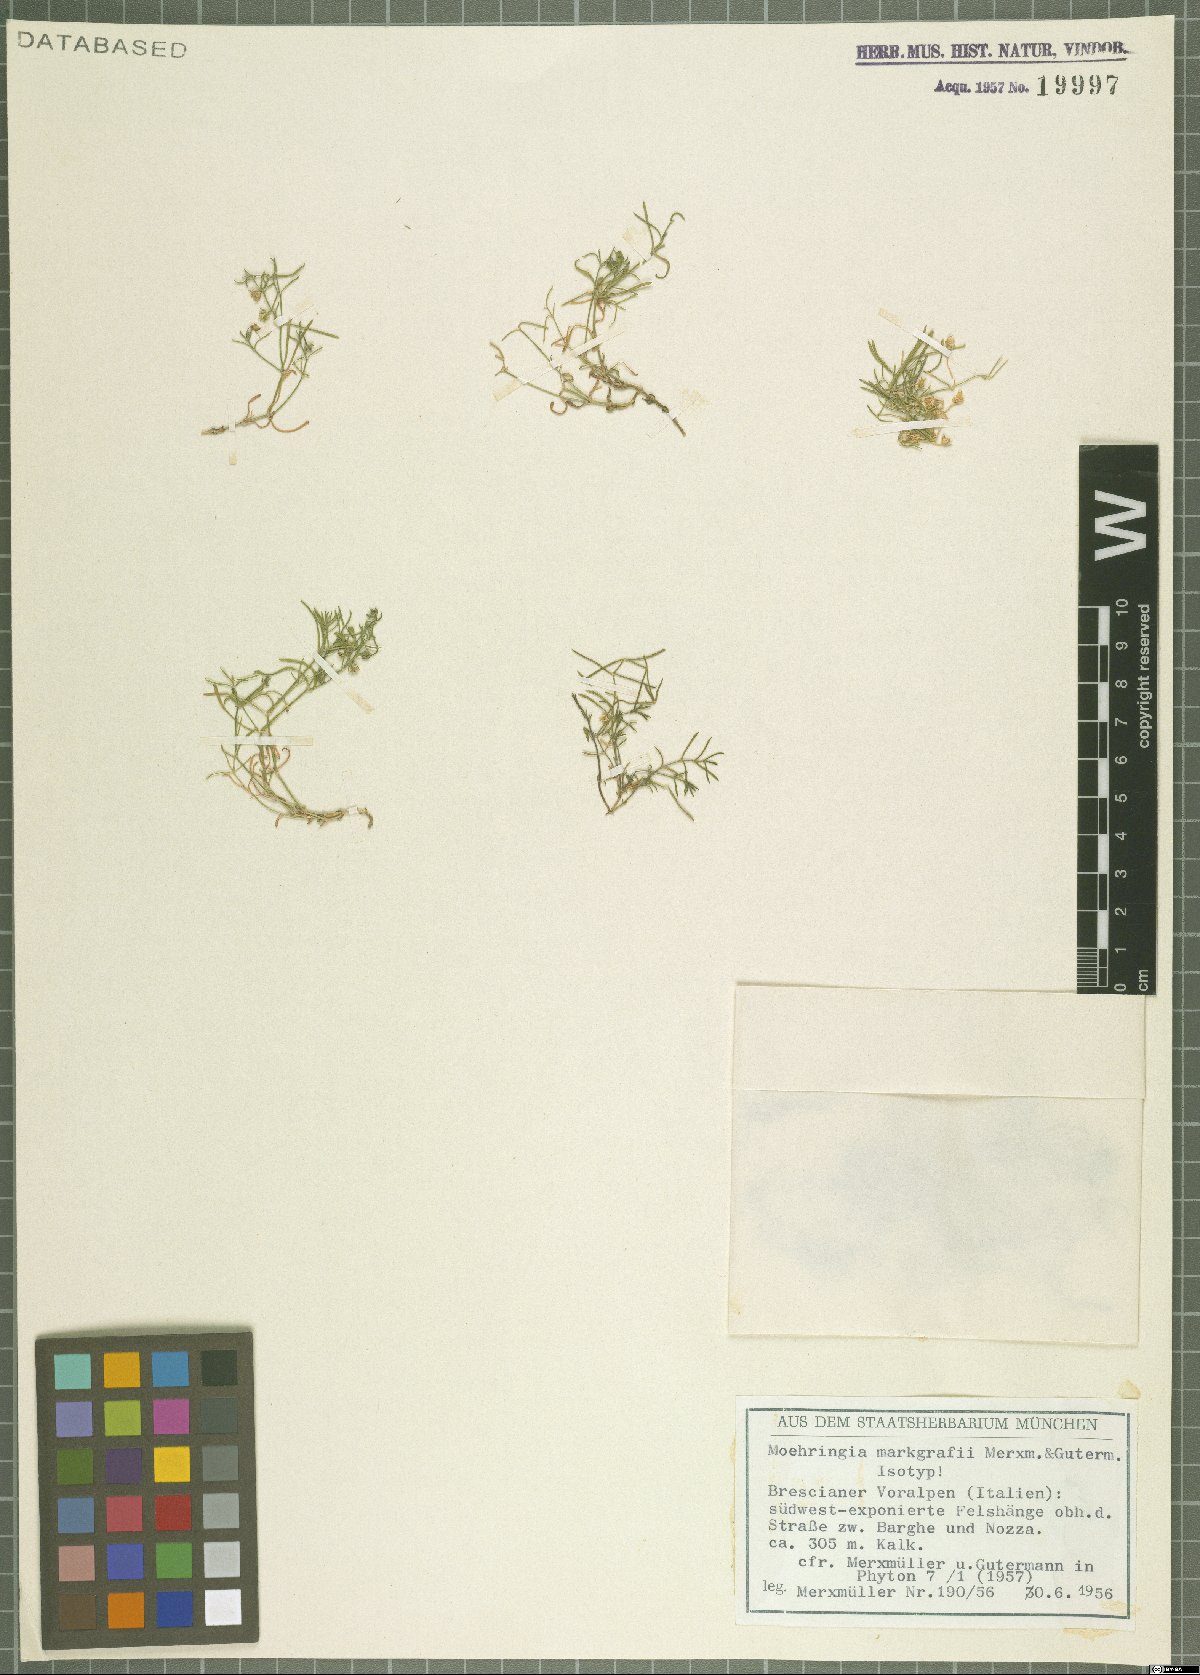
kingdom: Plantae
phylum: Tracheophyta
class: Magnoliopsida
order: Caryophyllales
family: Caryophyllaceae
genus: Moehringia
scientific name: Moehringia markgrafii
